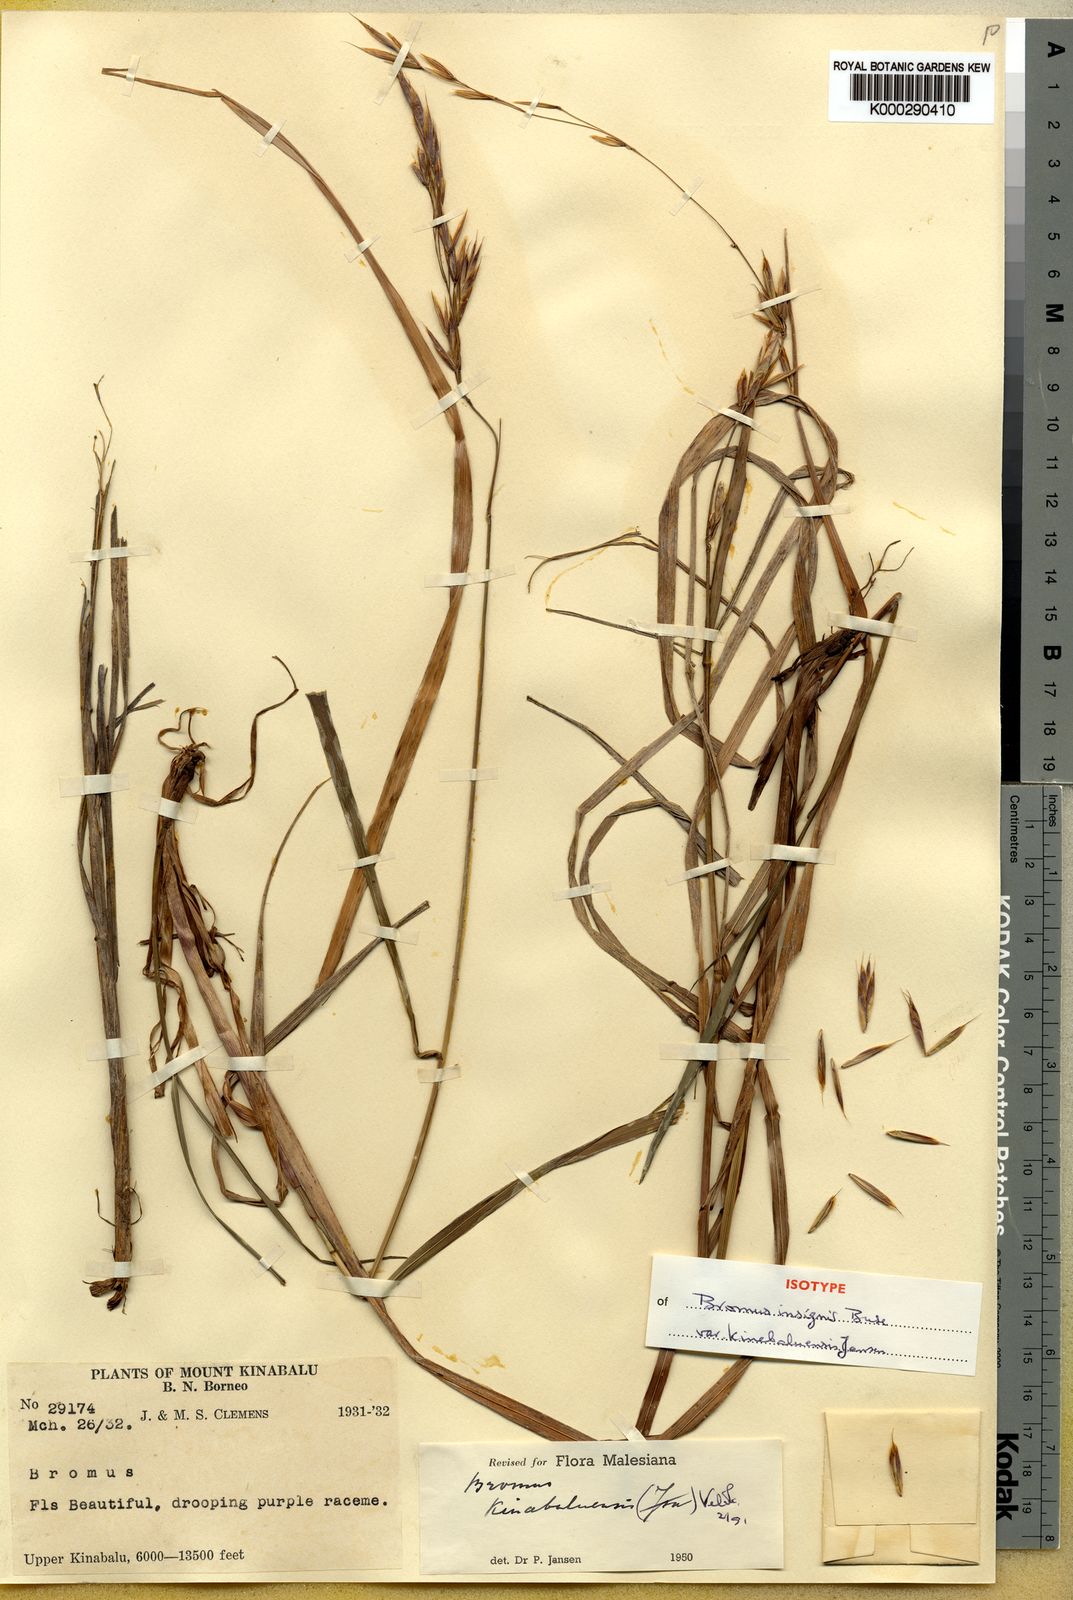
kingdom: Plantae
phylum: Tracheophyta
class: Liliopsida
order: Poales
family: Poaceae
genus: Bromus
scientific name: Bromus formosanus
